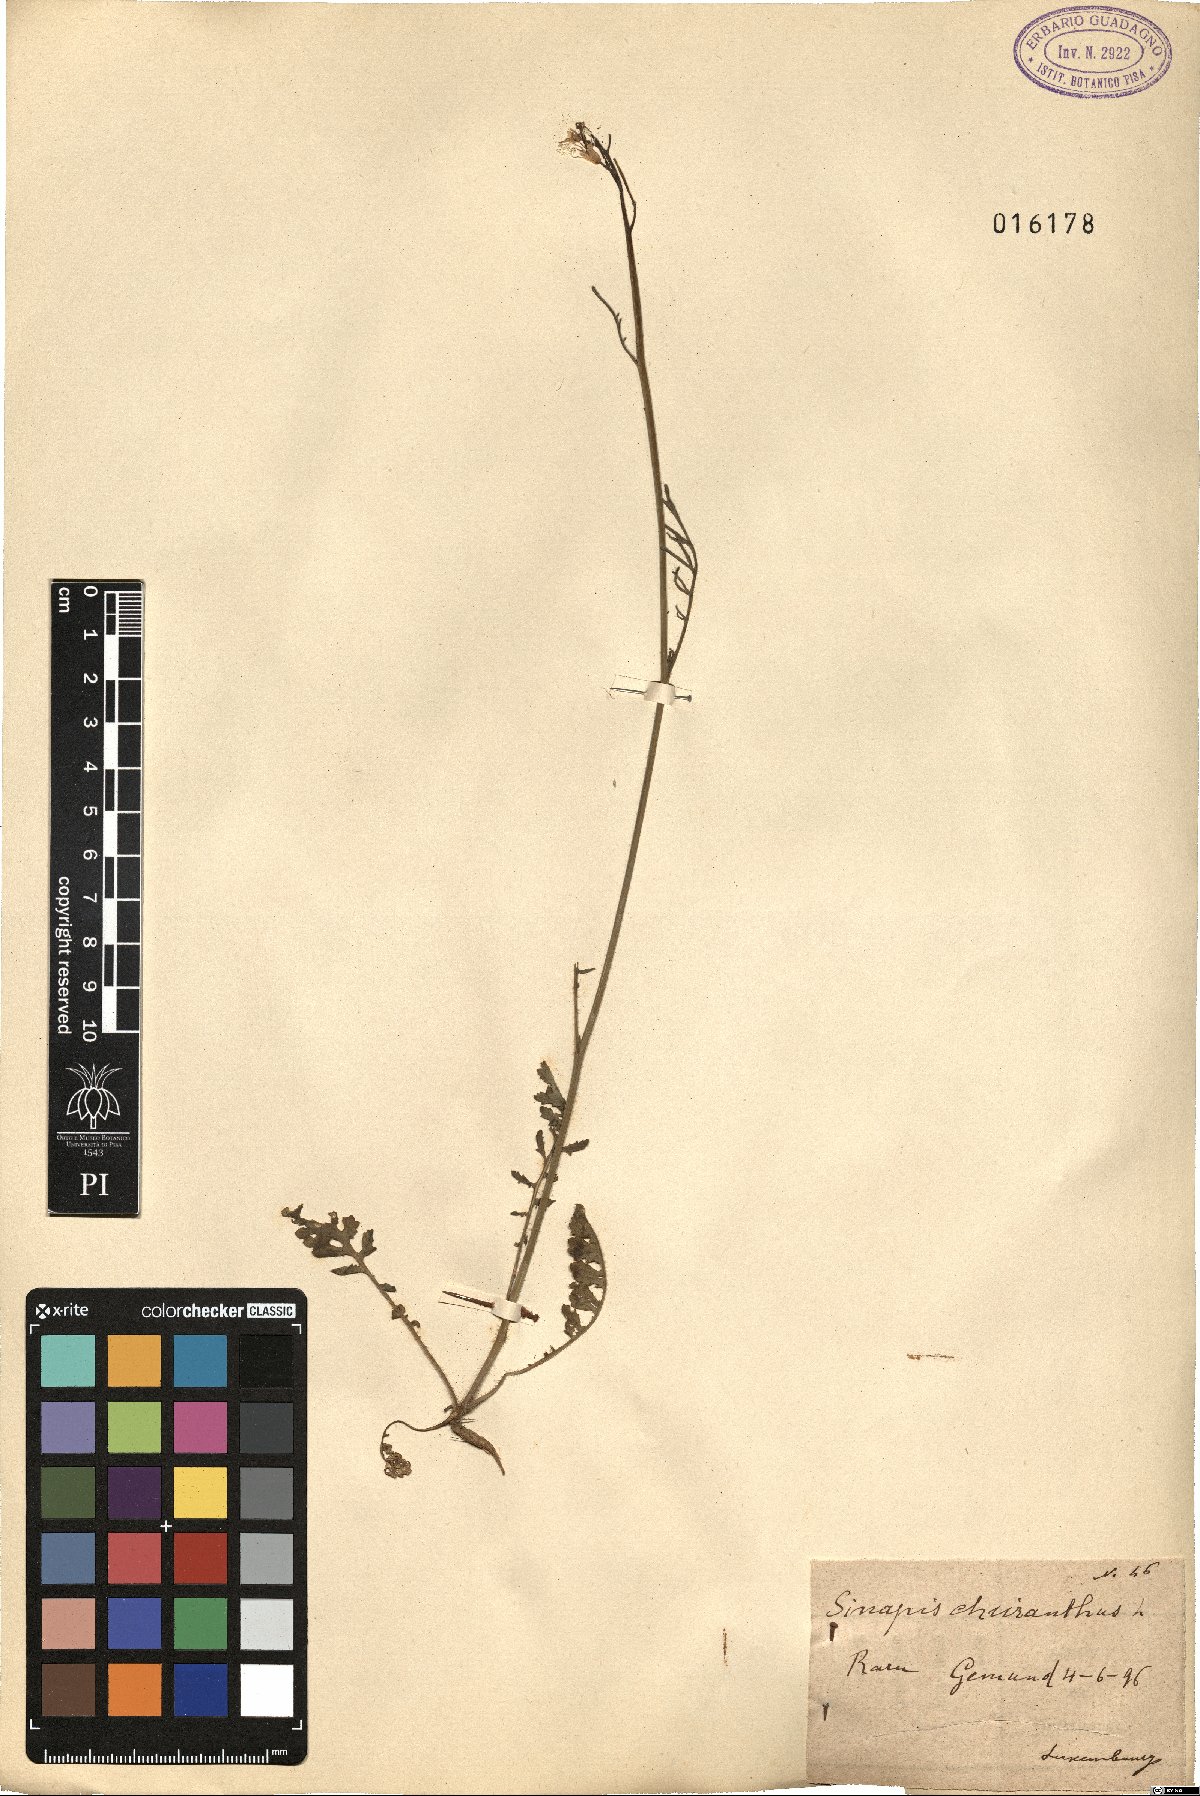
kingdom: Plantae
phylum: Tracheophyta
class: Magnoliopsida
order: Brassicales
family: Brassicaceae
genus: Coincya
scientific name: Coincya monensis
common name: Star-mustard
